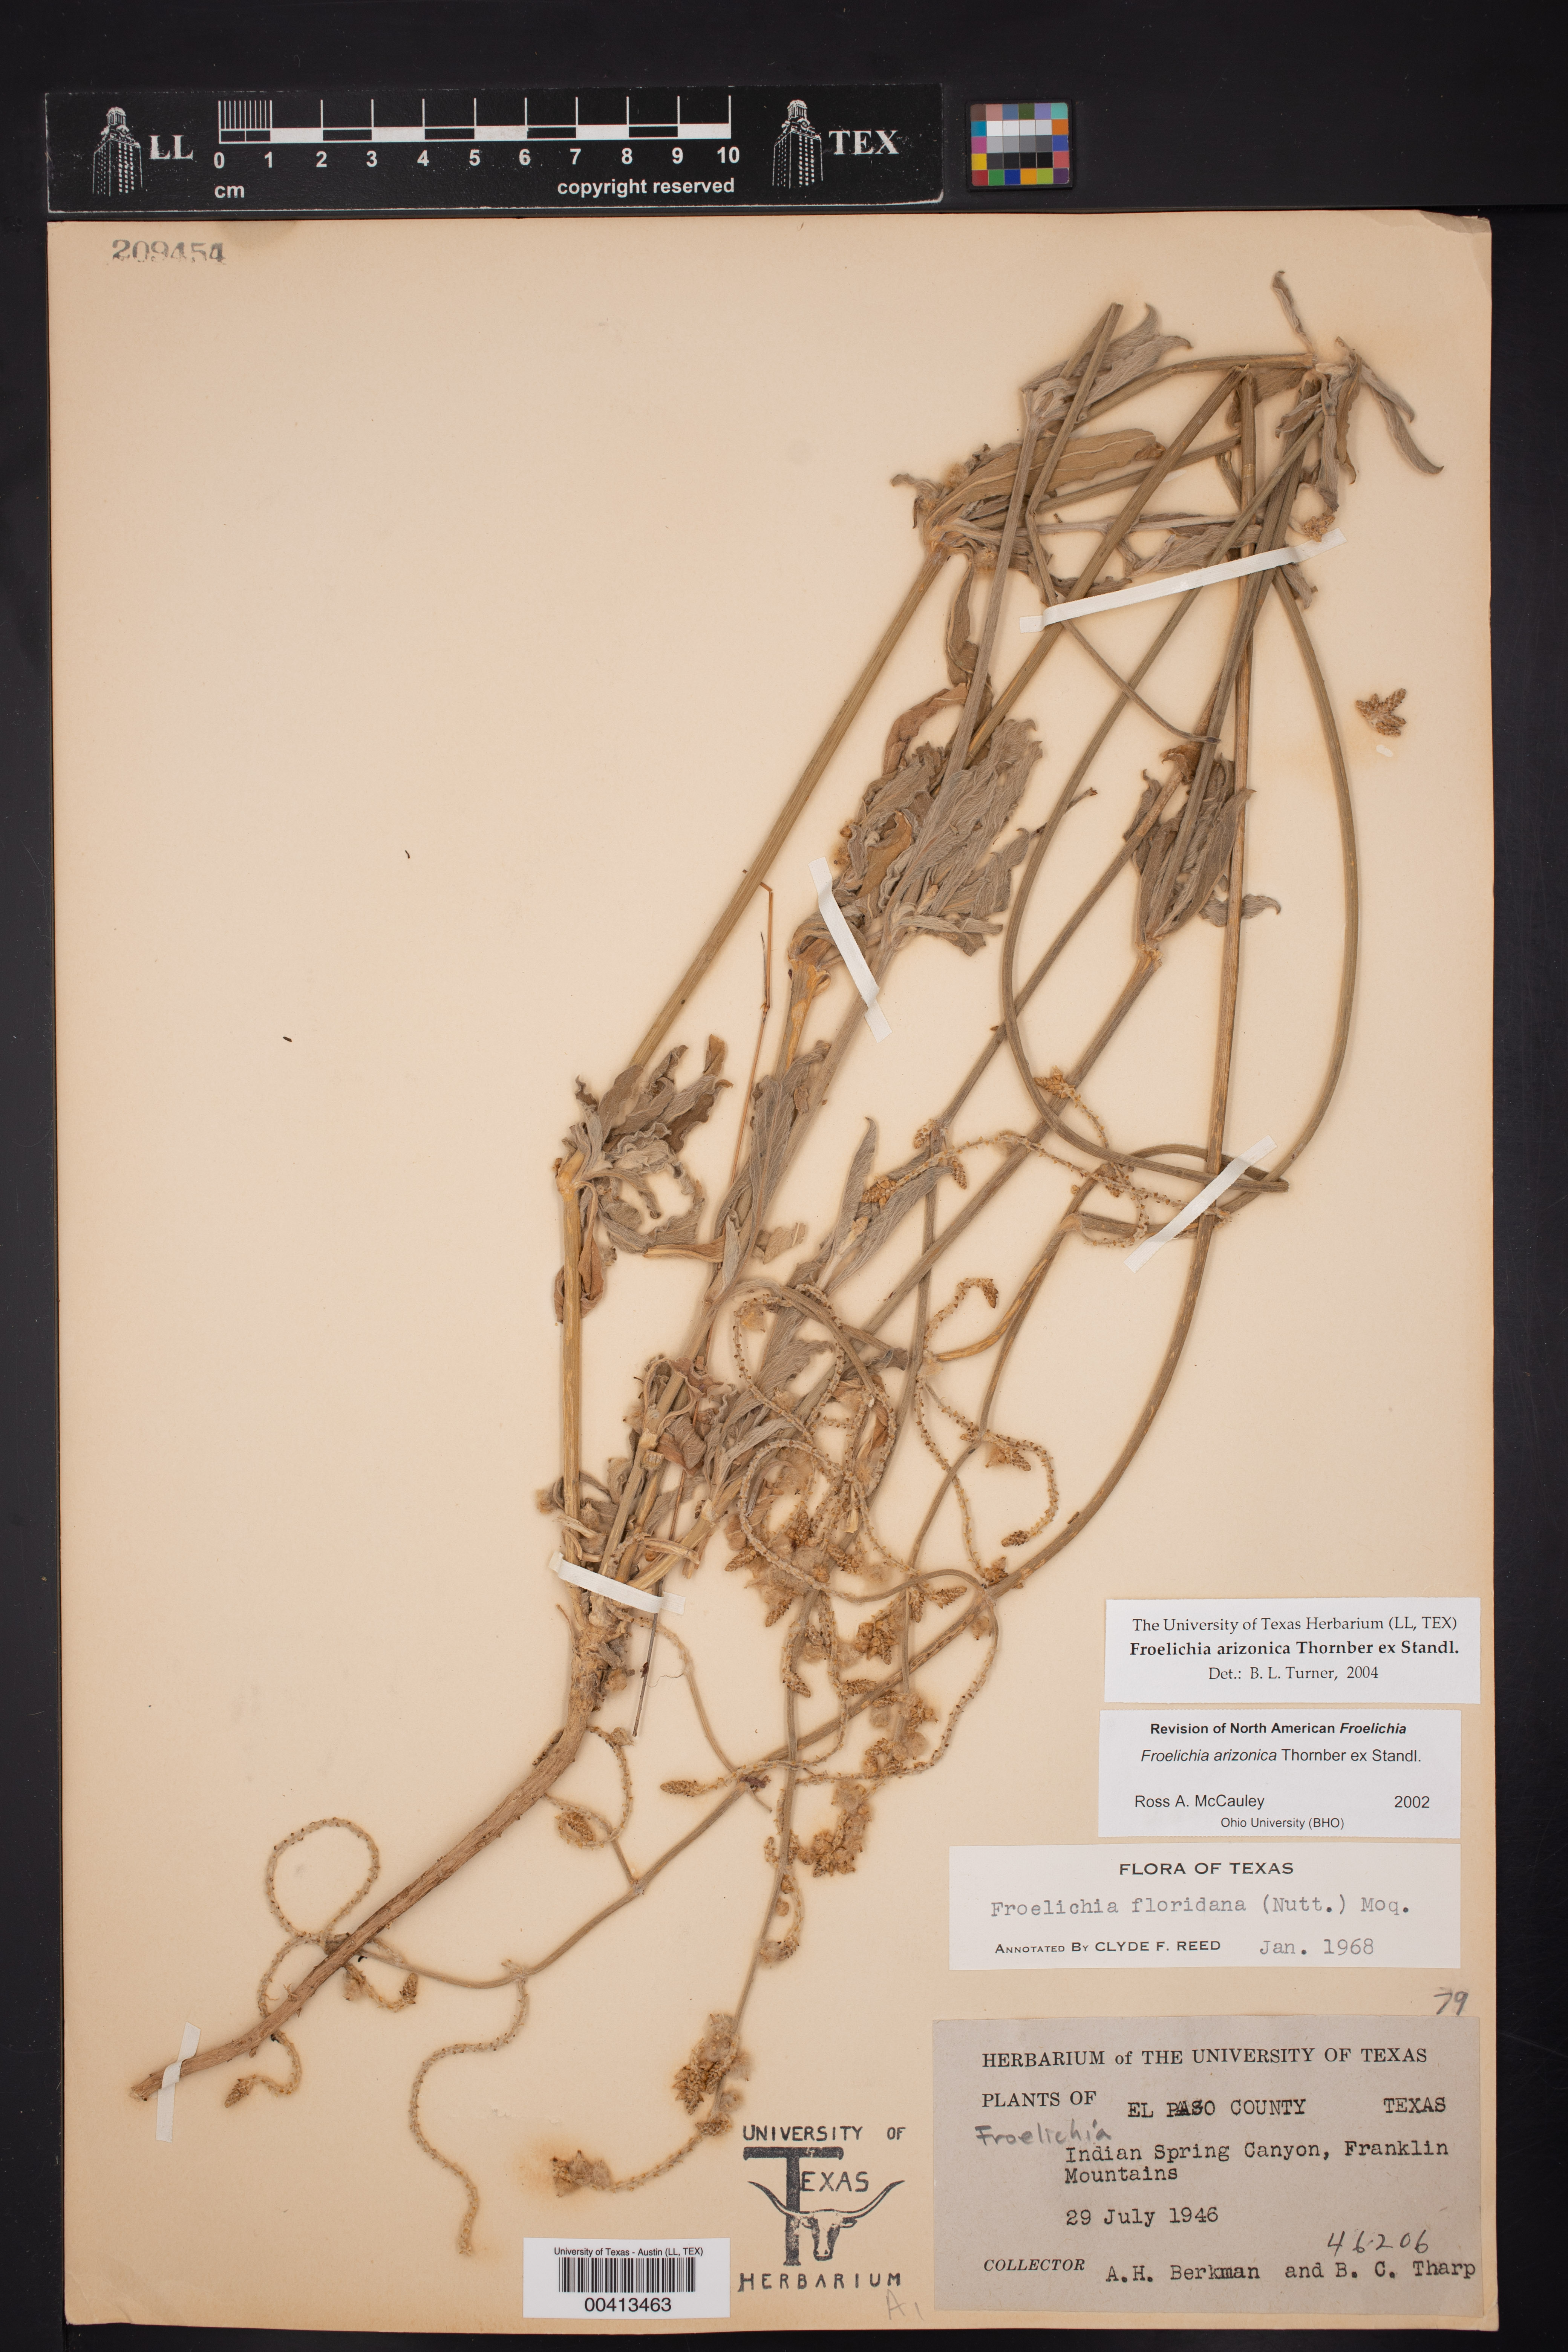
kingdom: Plantae
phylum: Tracheophyta
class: Magnoliopsida
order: Caryophyllales
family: Amaranthaceae
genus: Froelichia
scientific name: Froelichia arizonica
